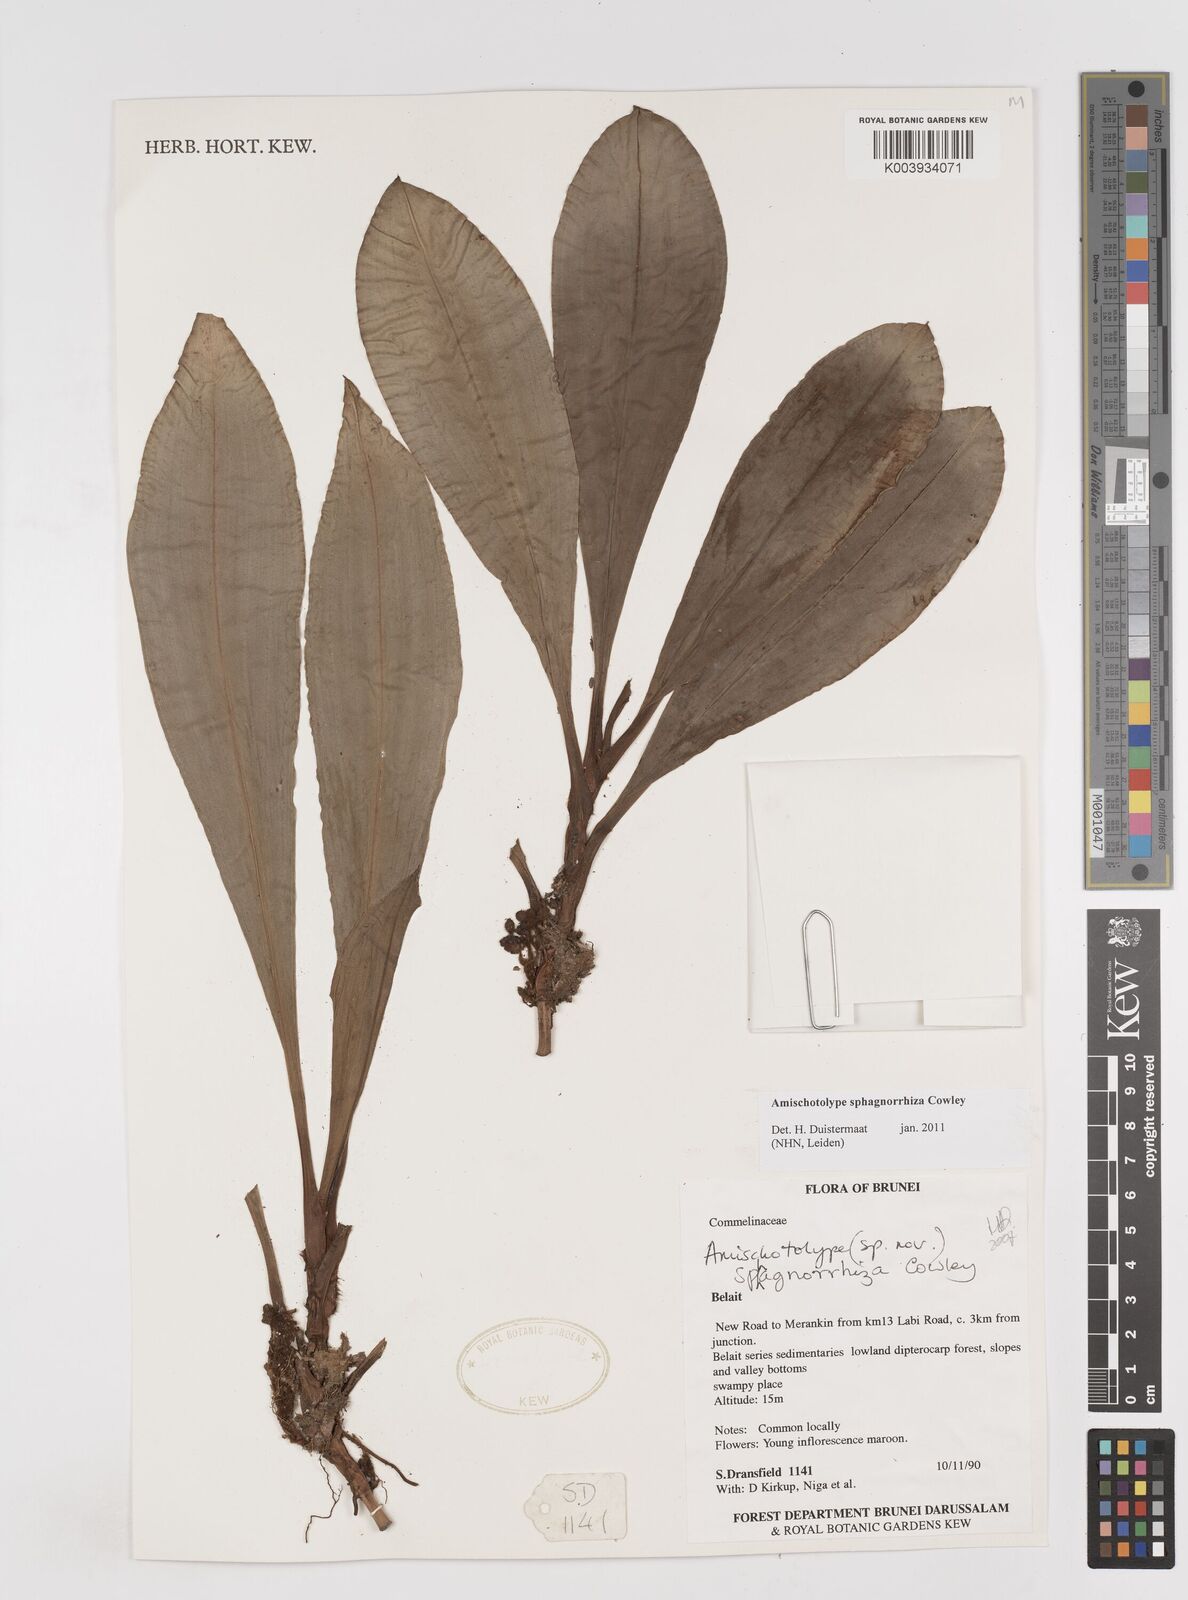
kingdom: Plantae
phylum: Tracheophyta
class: Liliopsida
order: Commelinales
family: Commelinaceae
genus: Amischotolype
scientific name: Amischotolype sphagnorrhiza
